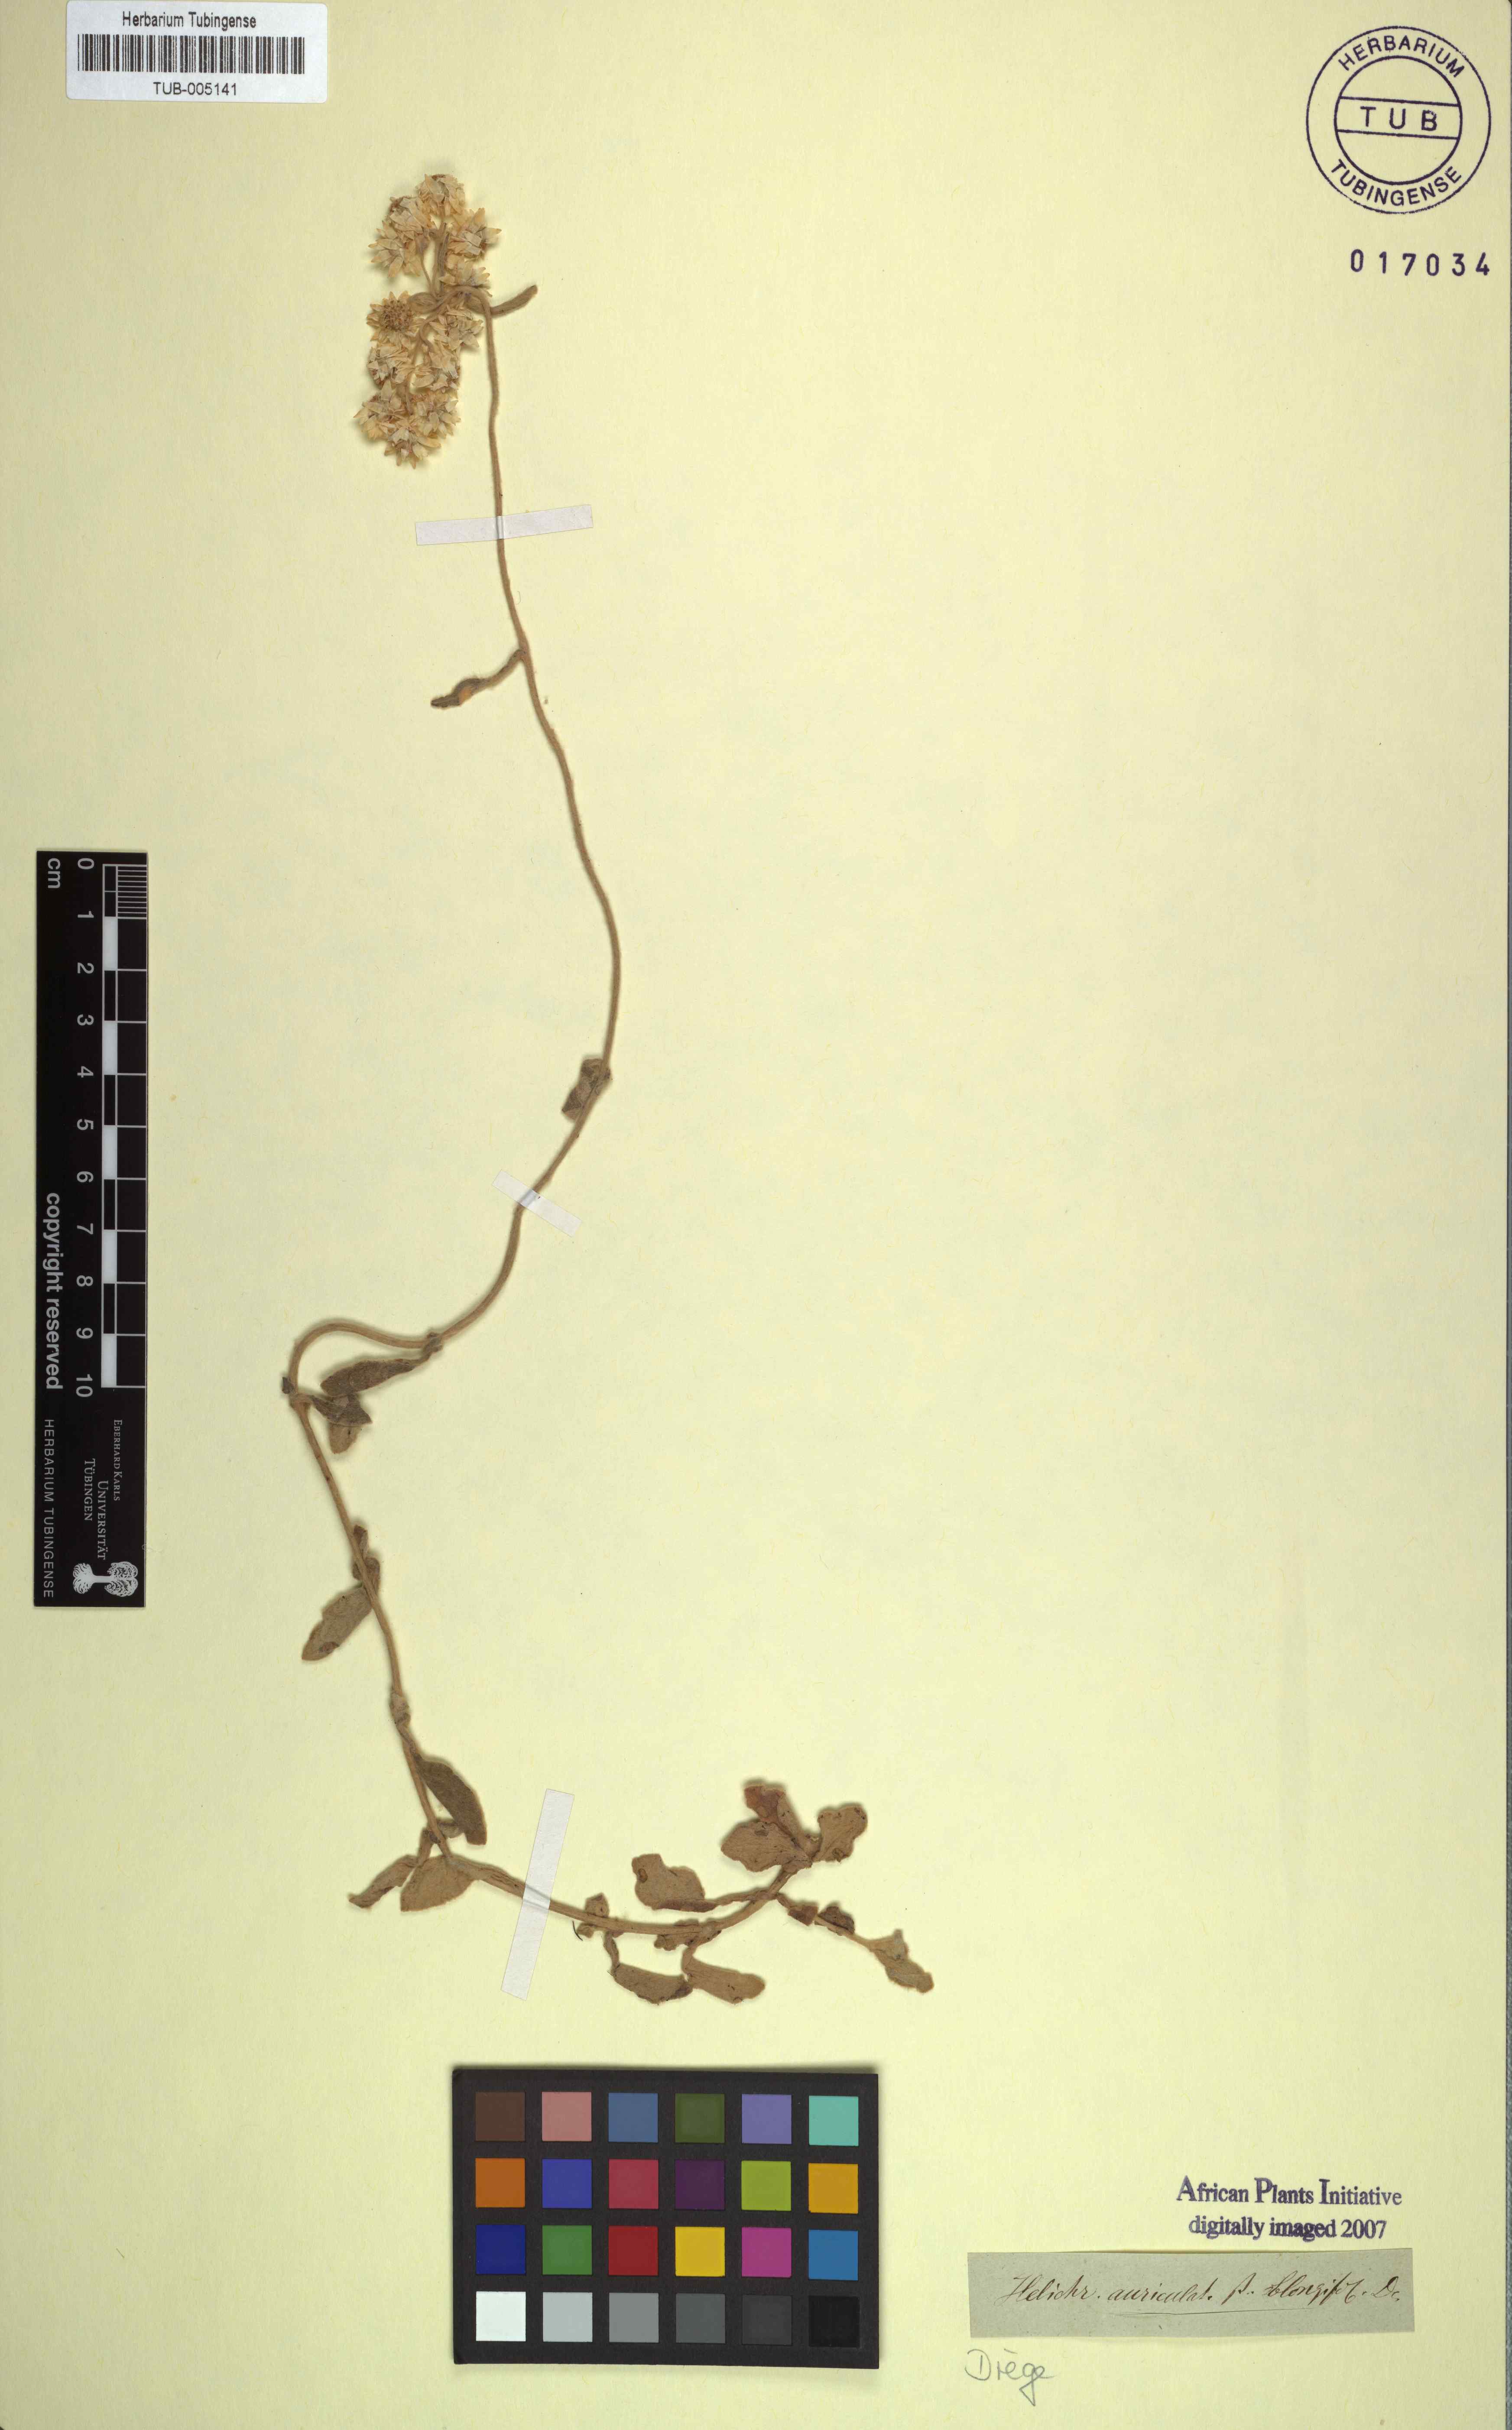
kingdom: Plantae
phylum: Tracheophyta
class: Magnoliopsida
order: Asterales
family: Asteraceae
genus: Helichrysum
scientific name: Helichrysum pandurifolium
